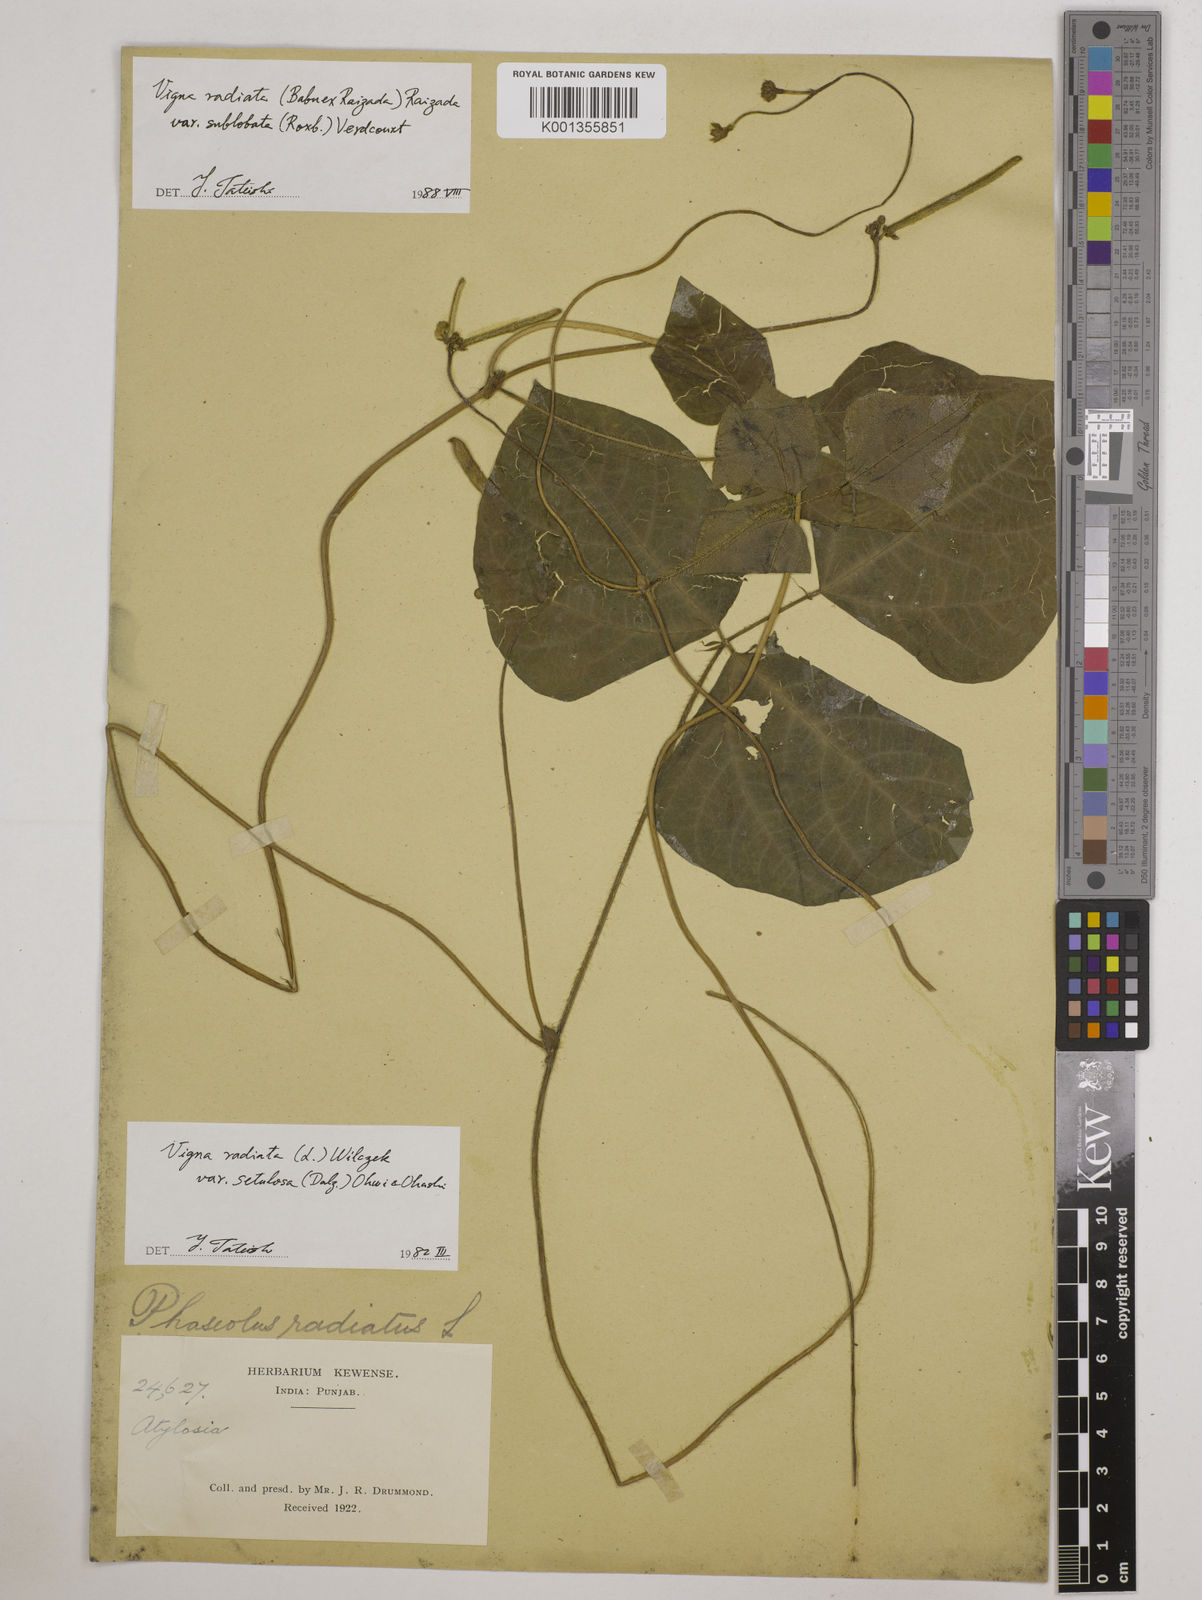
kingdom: Plantae
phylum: Tracheophyta
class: Magnoliopsida
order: Fabales
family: Fabaceae
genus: Vigna
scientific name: Vigna radiata
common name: Mung-bean
